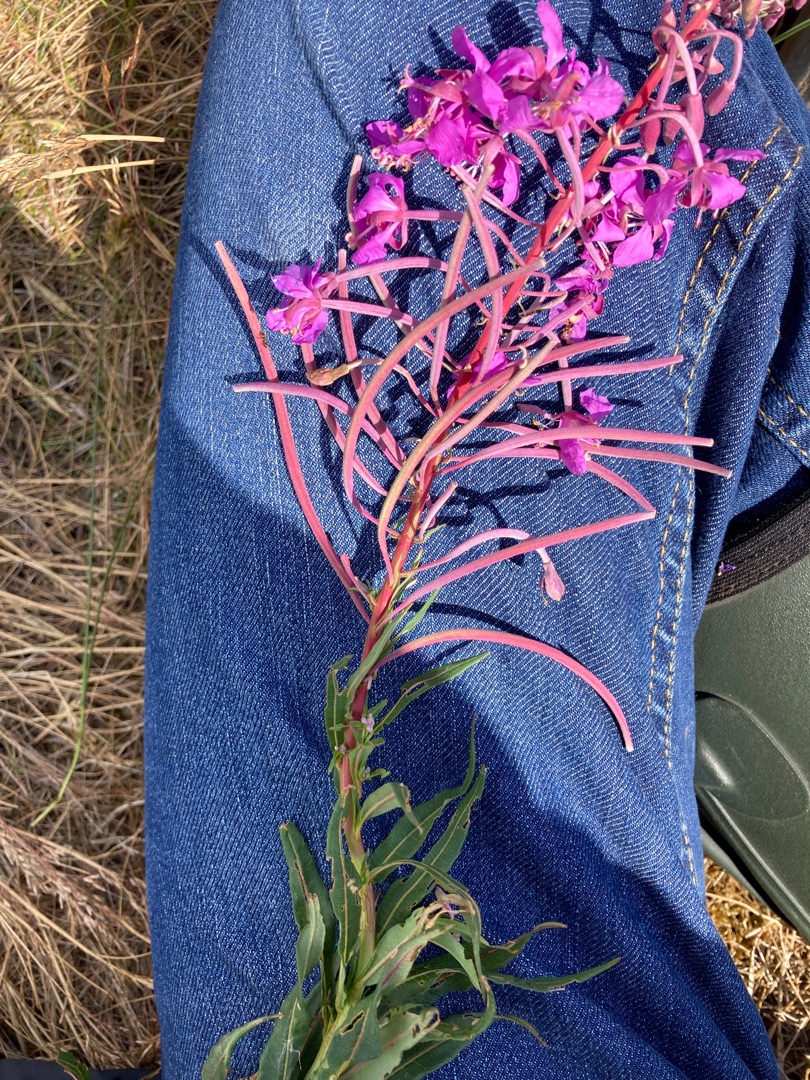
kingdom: Plantae
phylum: Tracheophyta
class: Magnoliopsida
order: Myrtales
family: Onagraceae
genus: Chamaenerion
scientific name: Chamaenerion angustifolium
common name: Gederams
